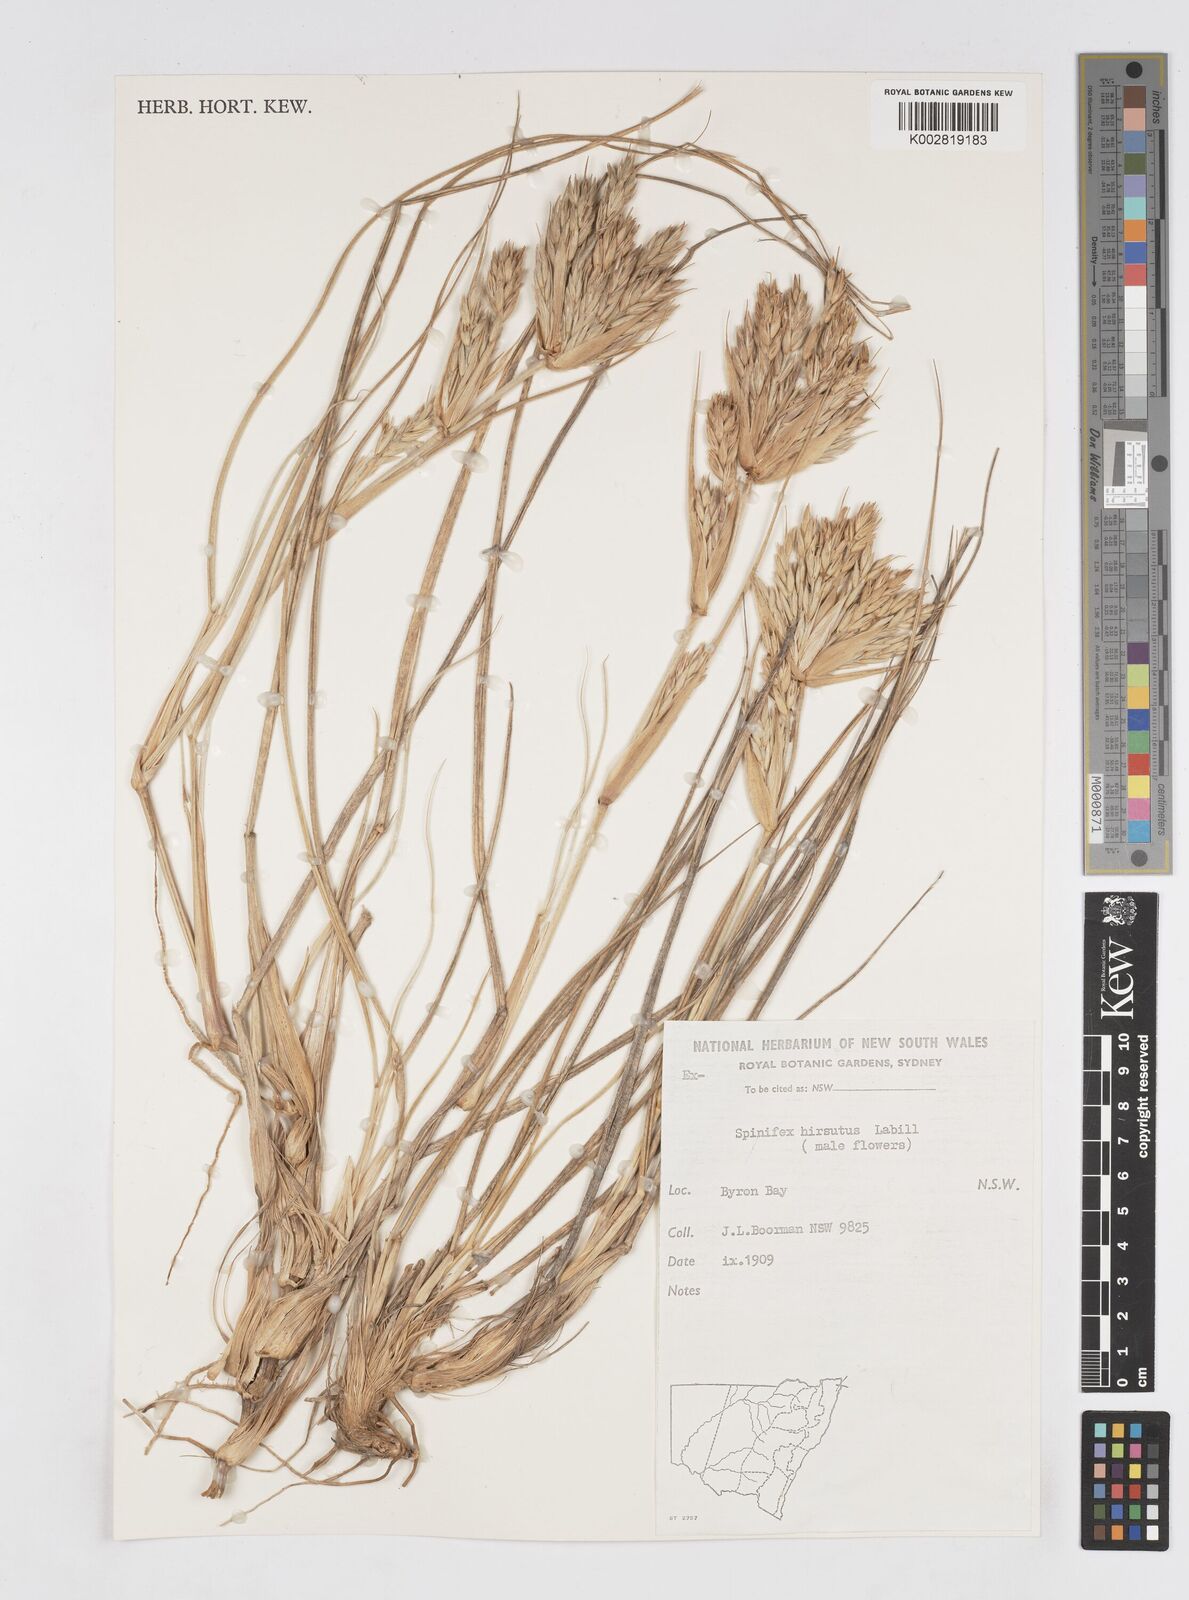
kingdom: Plantae
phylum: Tracheophyta
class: Liliopsida
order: Poales
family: Poaceae
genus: Spinifex
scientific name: Spinifex sericeus
